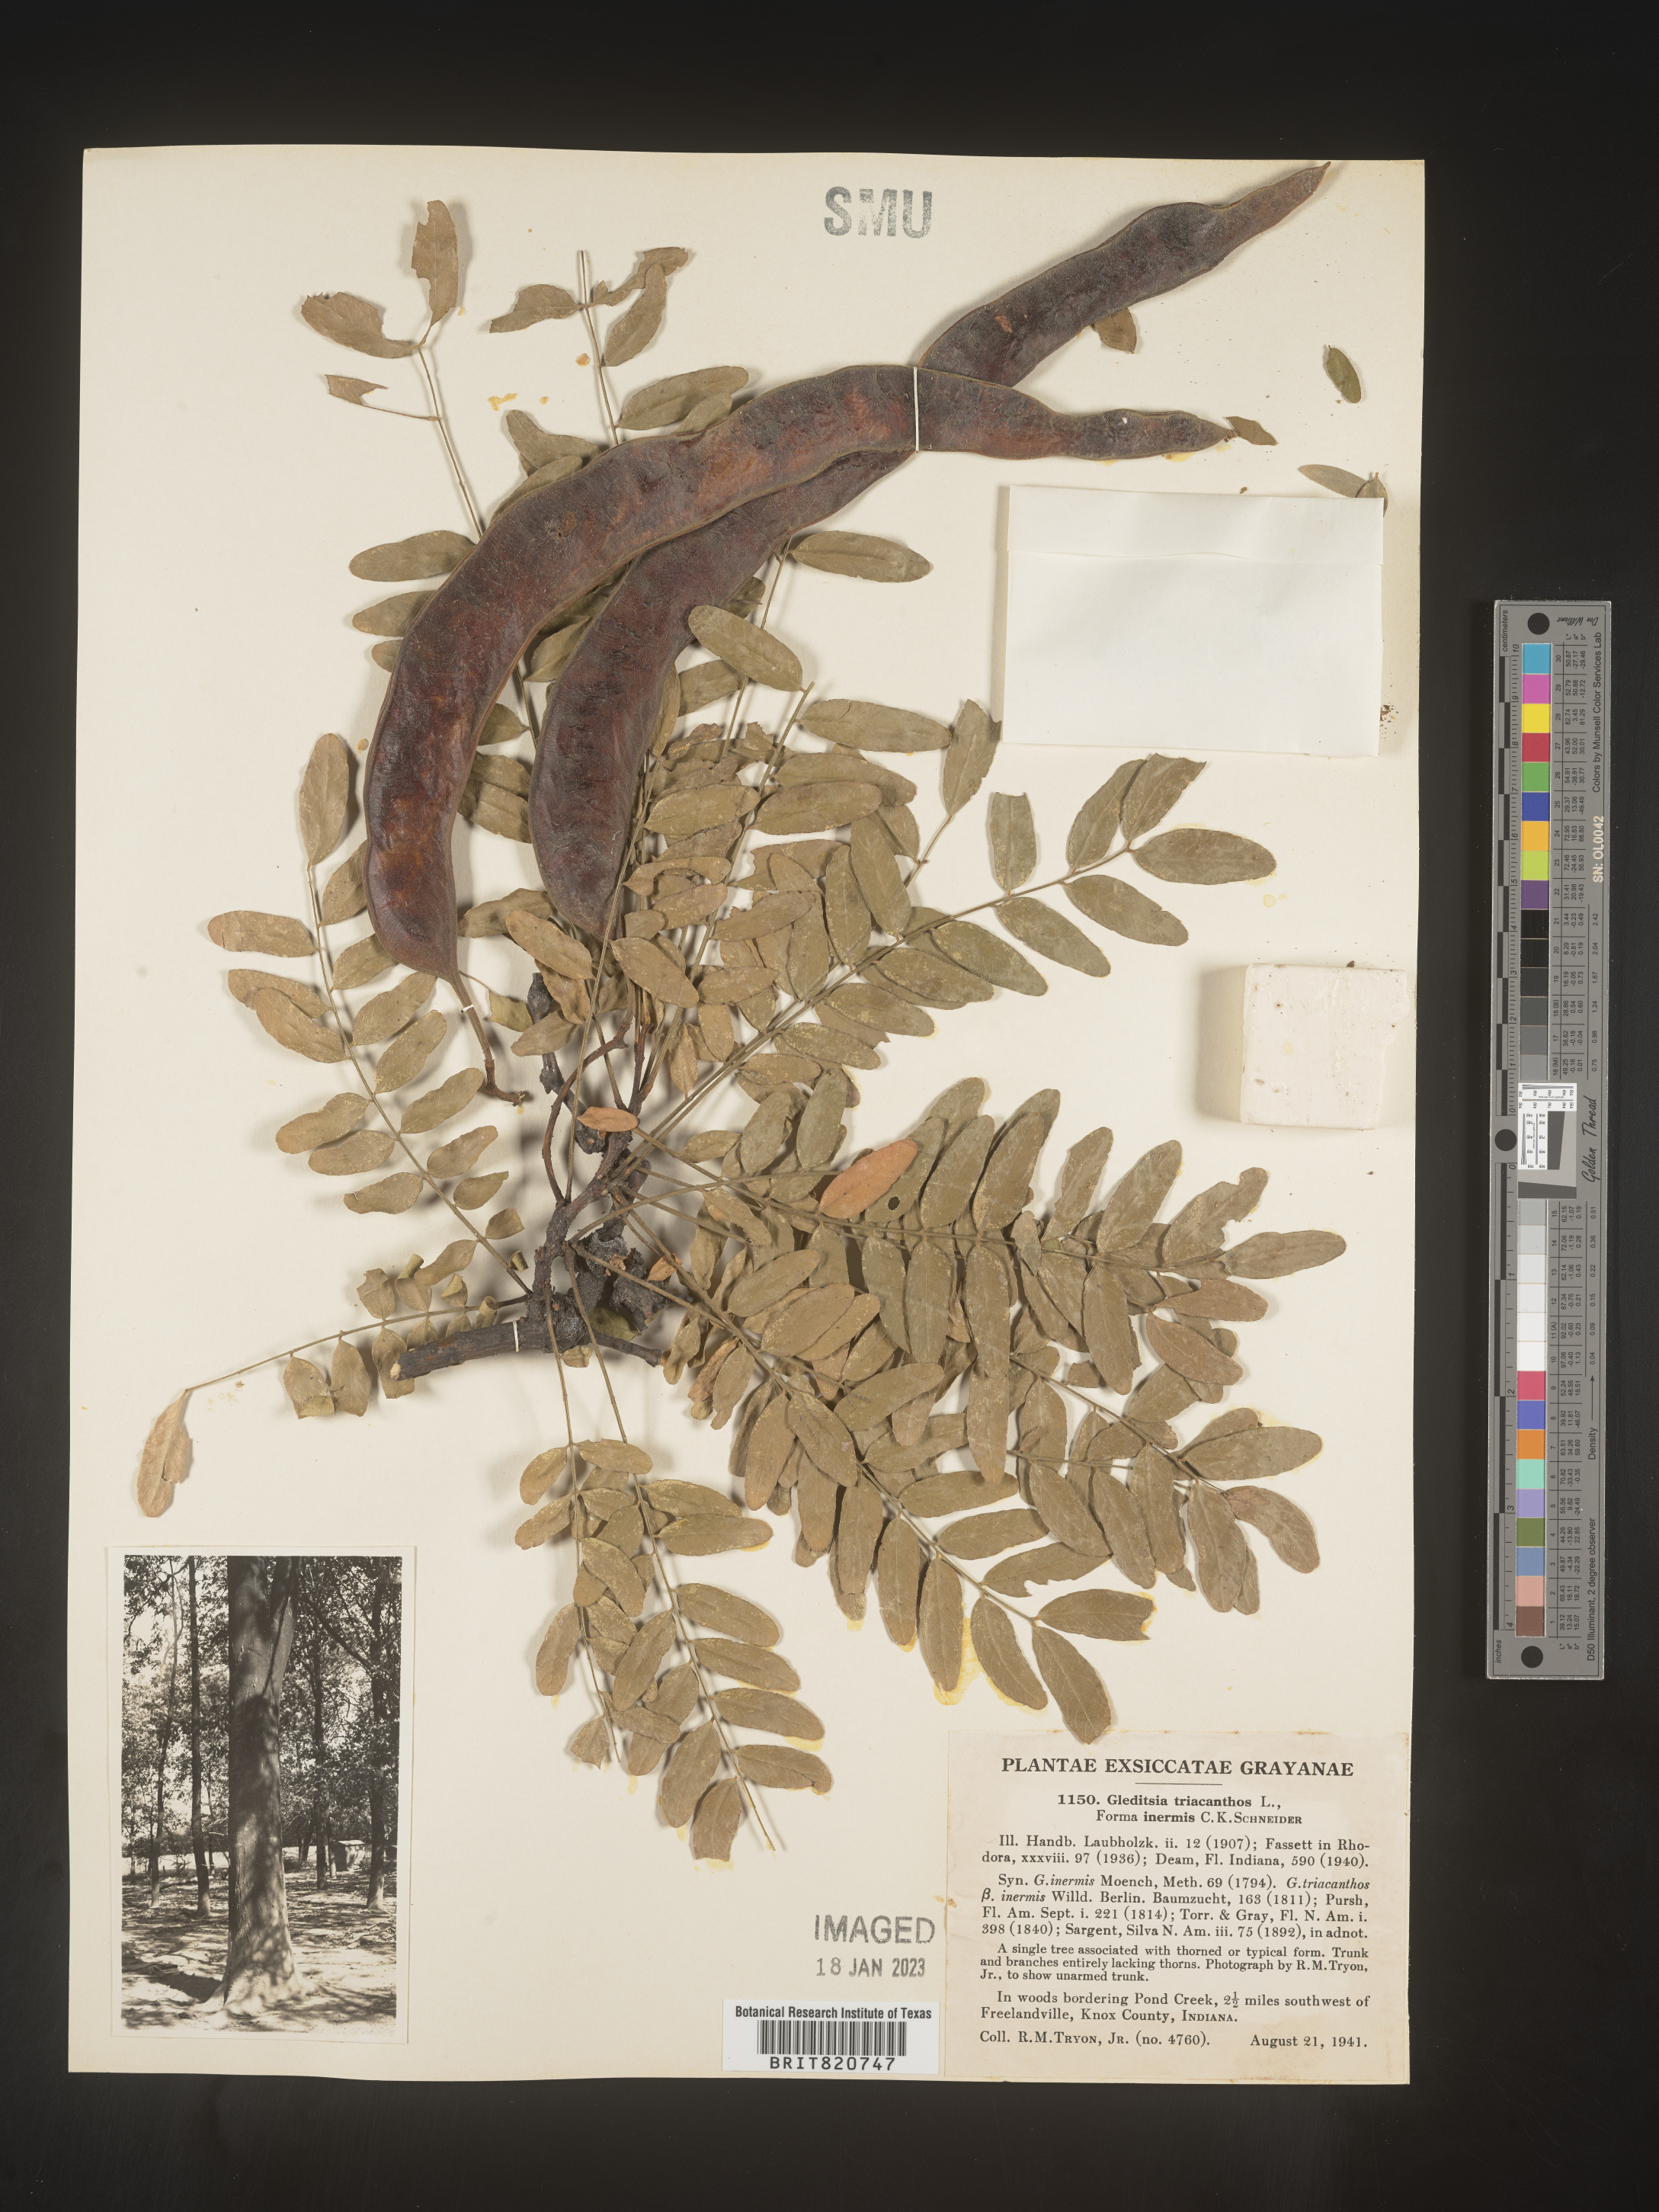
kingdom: Plantae
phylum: Tracheophyta
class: Magnoliopsida
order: Fabales
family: Fabaceae
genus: Gleditsia
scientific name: Gleditsia triacanthos
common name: Common honeylocust
